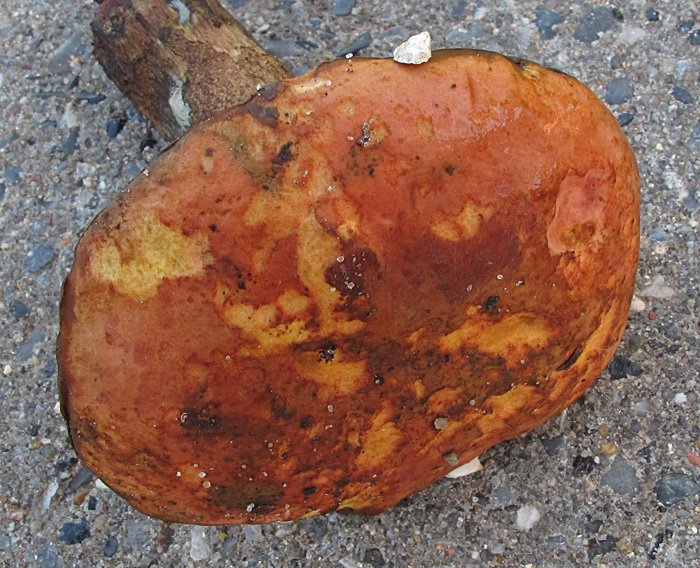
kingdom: Fungi
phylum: Basidiomycota
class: Agaricomycetes
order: Boletales
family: Boletaceae
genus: Suillellus
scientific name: Suillellus mendax
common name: joker-indigorørhat
